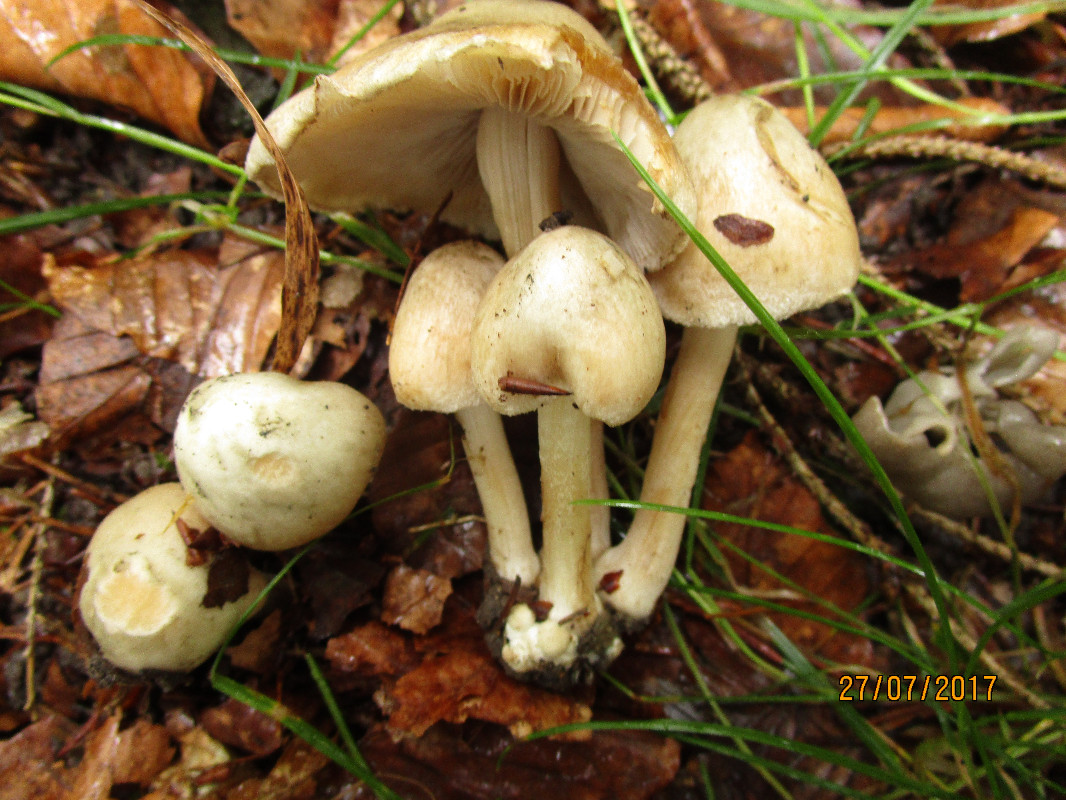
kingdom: Fungi
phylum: Basidiomycota
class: Agaricomycetes
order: Agaricales
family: Inocybaceae
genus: Inocybe
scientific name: Inocybe
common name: trævlhat
